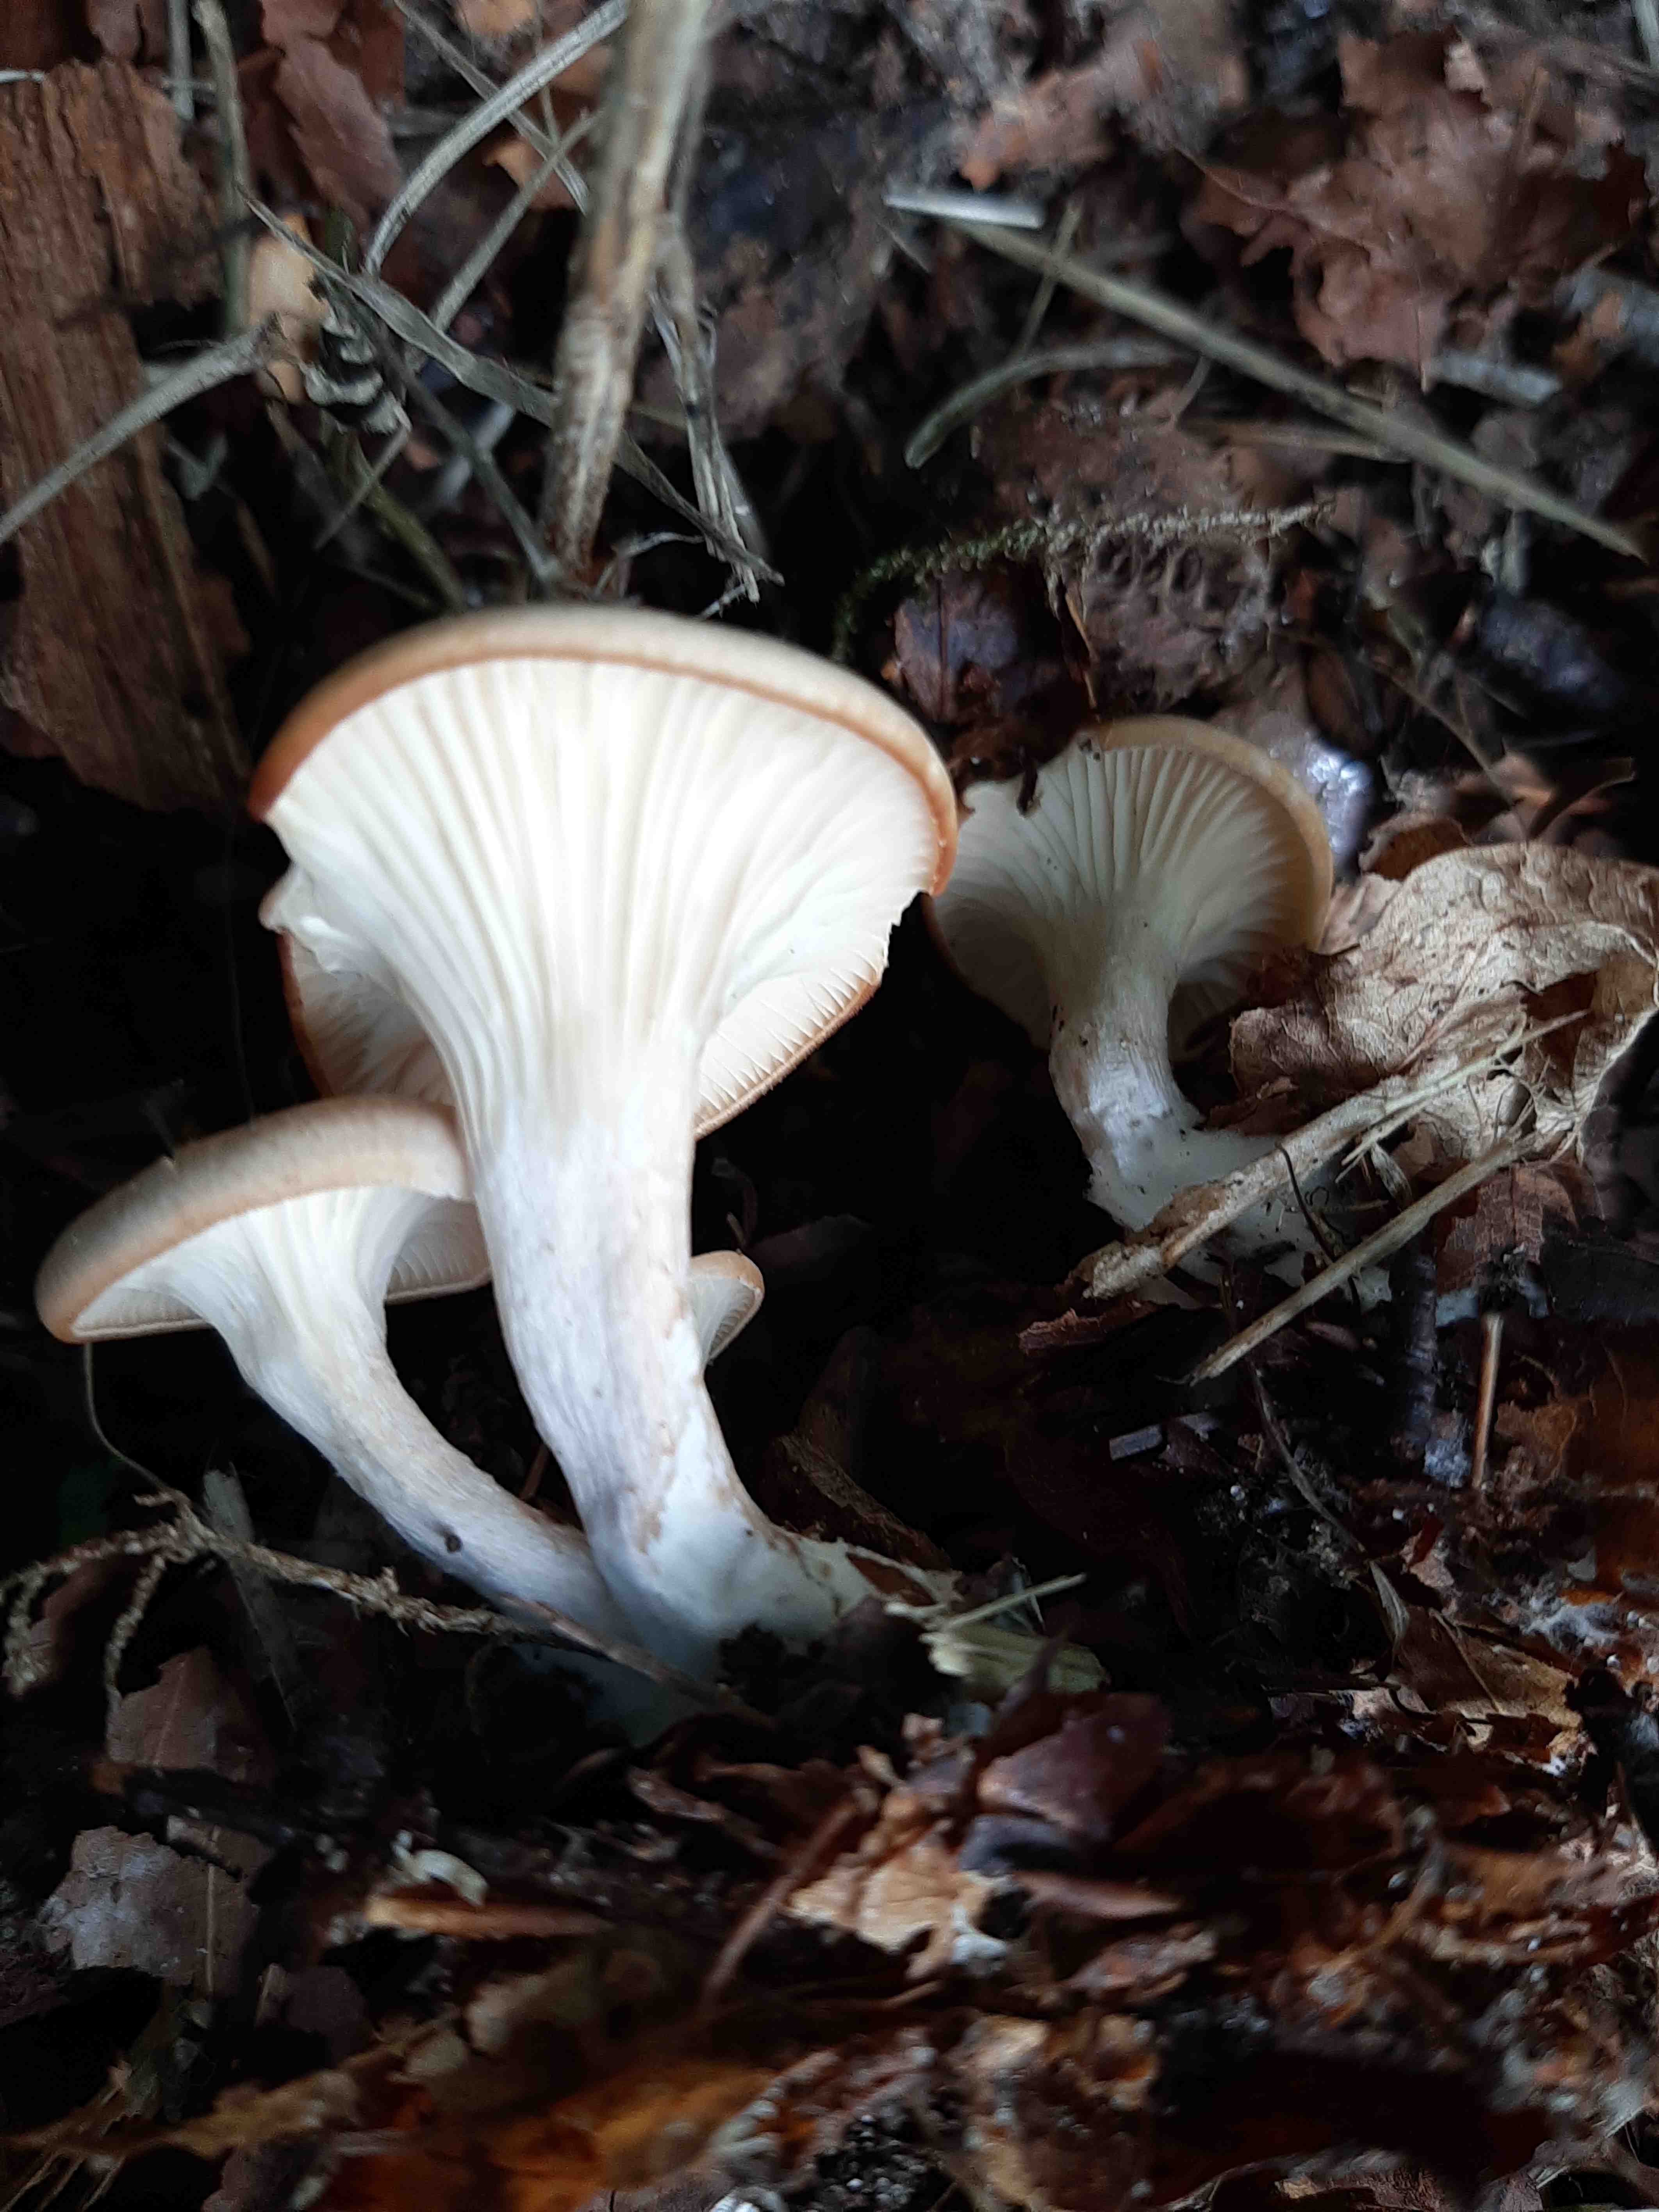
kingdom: Fungi
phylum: Basidiomycota
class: Agaricomycetes
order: Agaricales
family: Tricholomataceae
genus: Infundibulicybe
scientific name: Infundibulicybe
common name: tragthat
